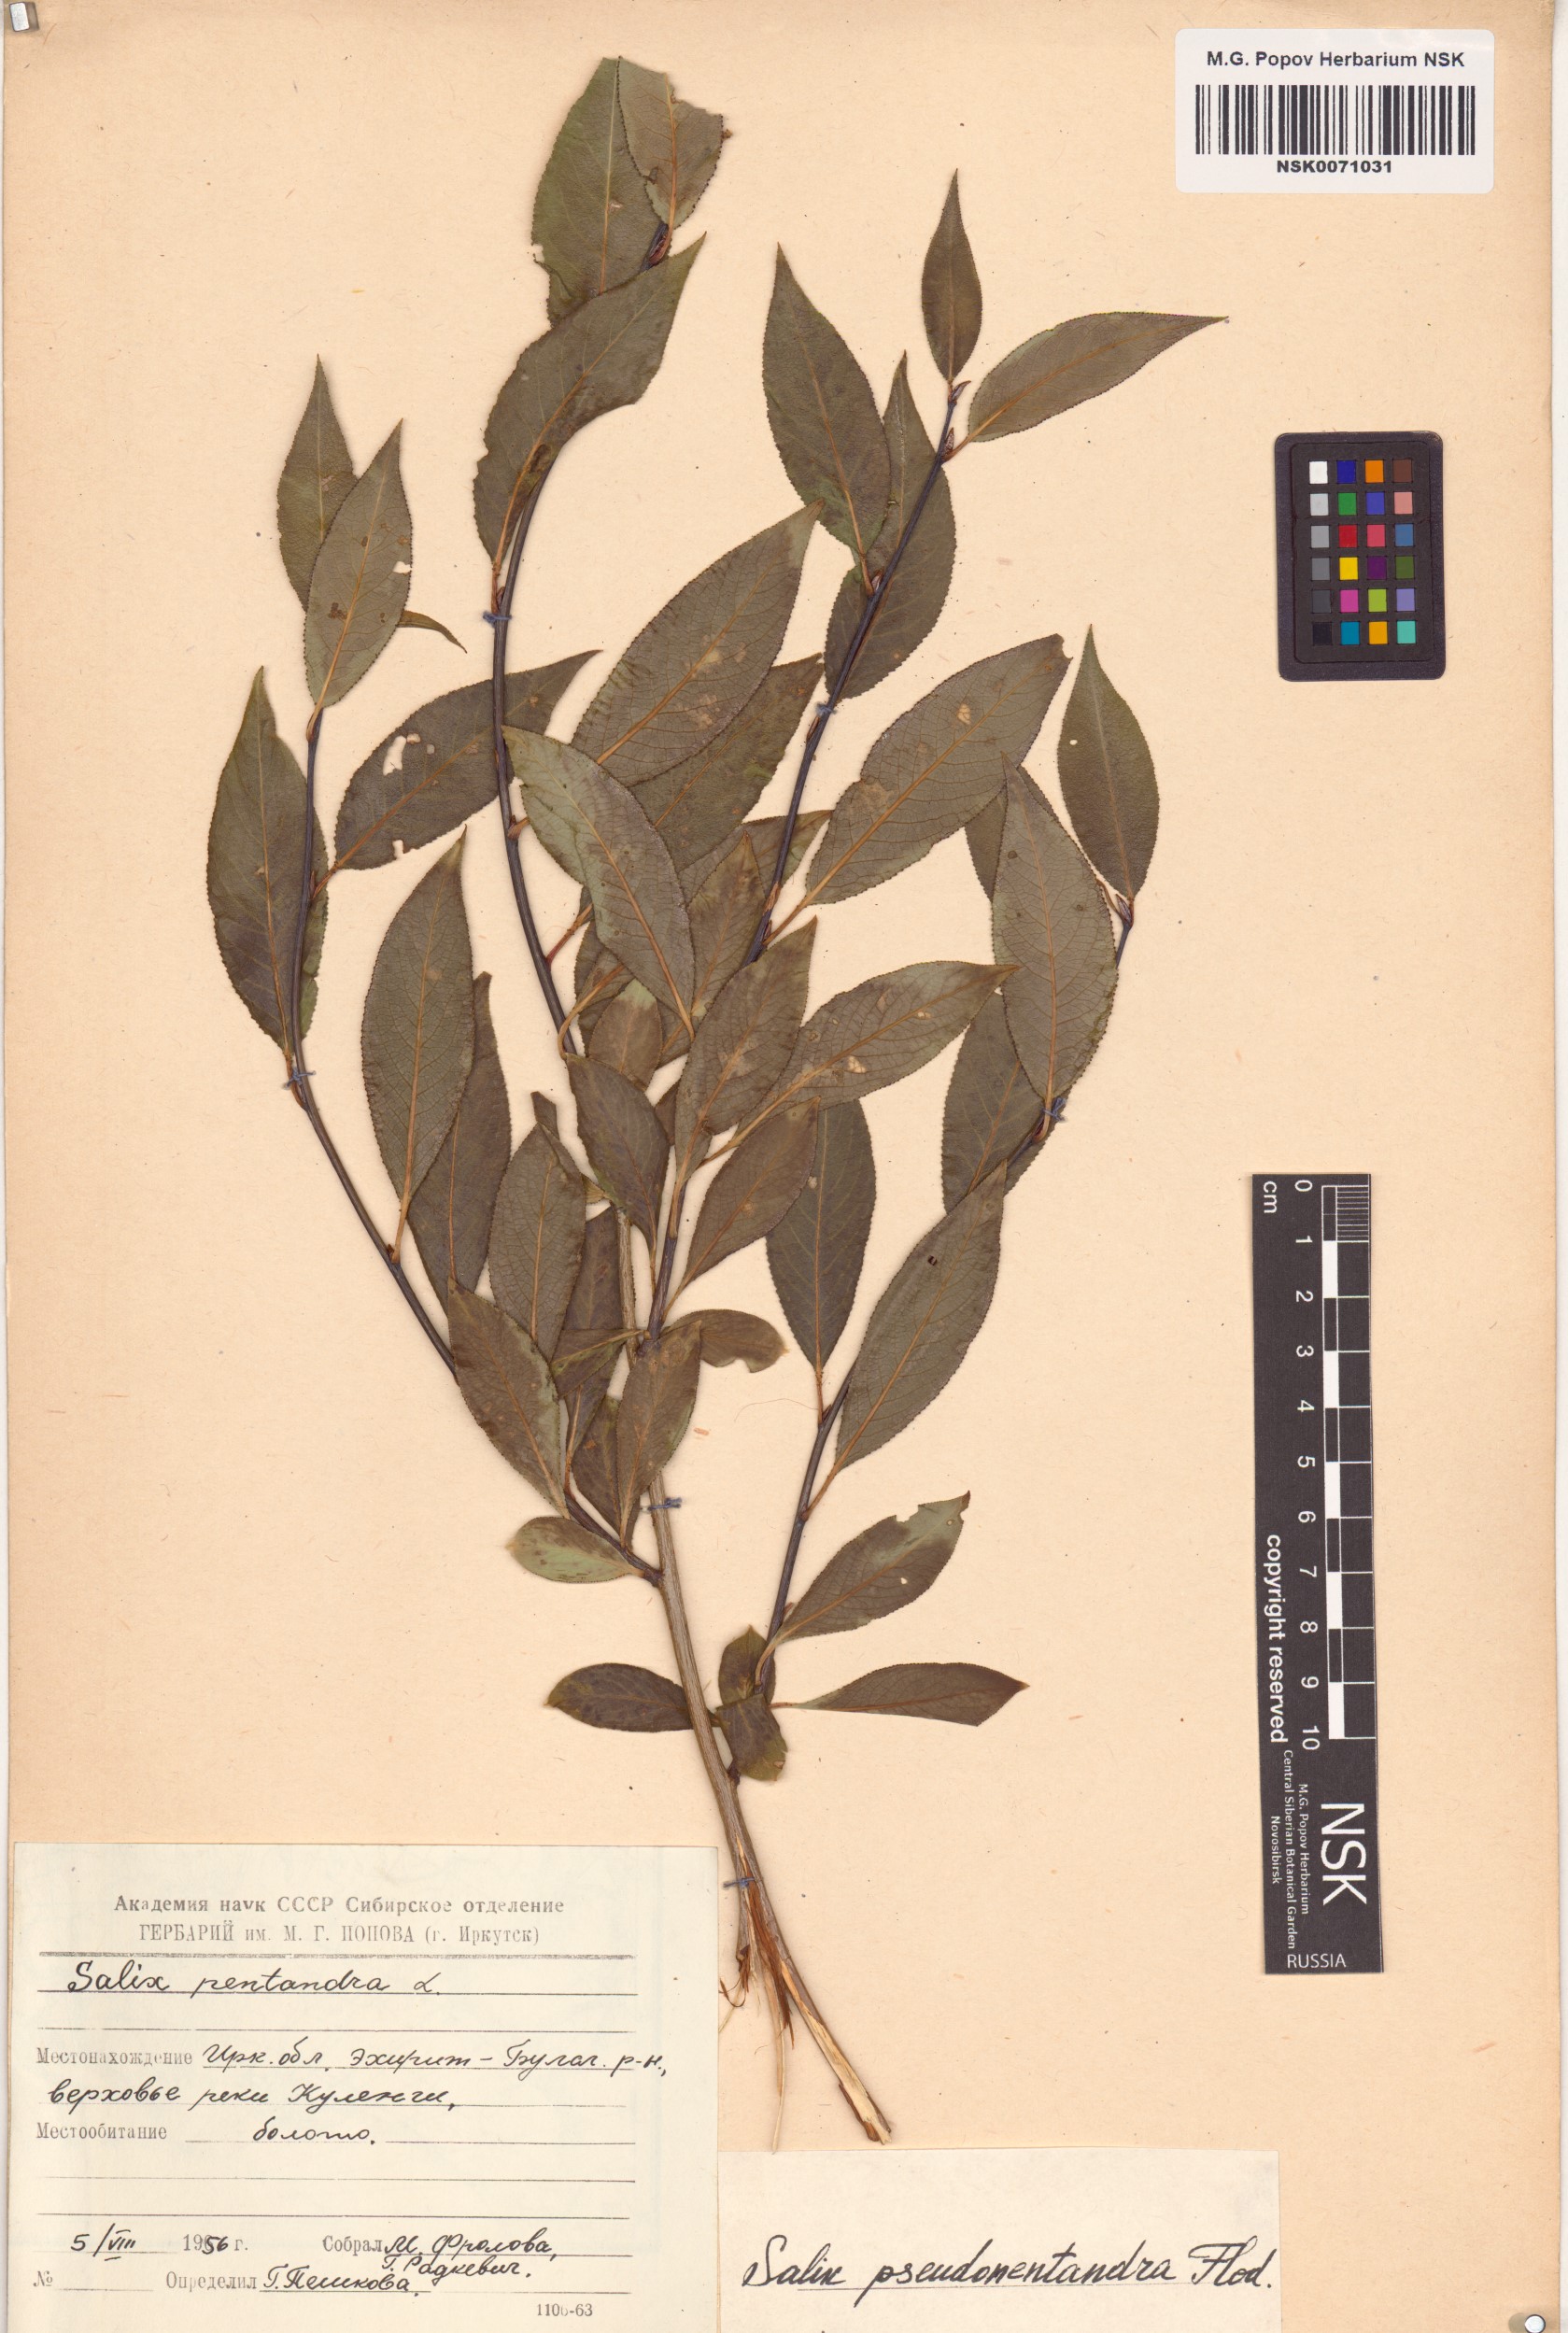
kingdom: Plantae
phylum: Tracheophyta
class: Magnoliopsida
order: Malpighiales
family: Salicaceae
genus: Salix
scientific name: Salix pseudopentandra
